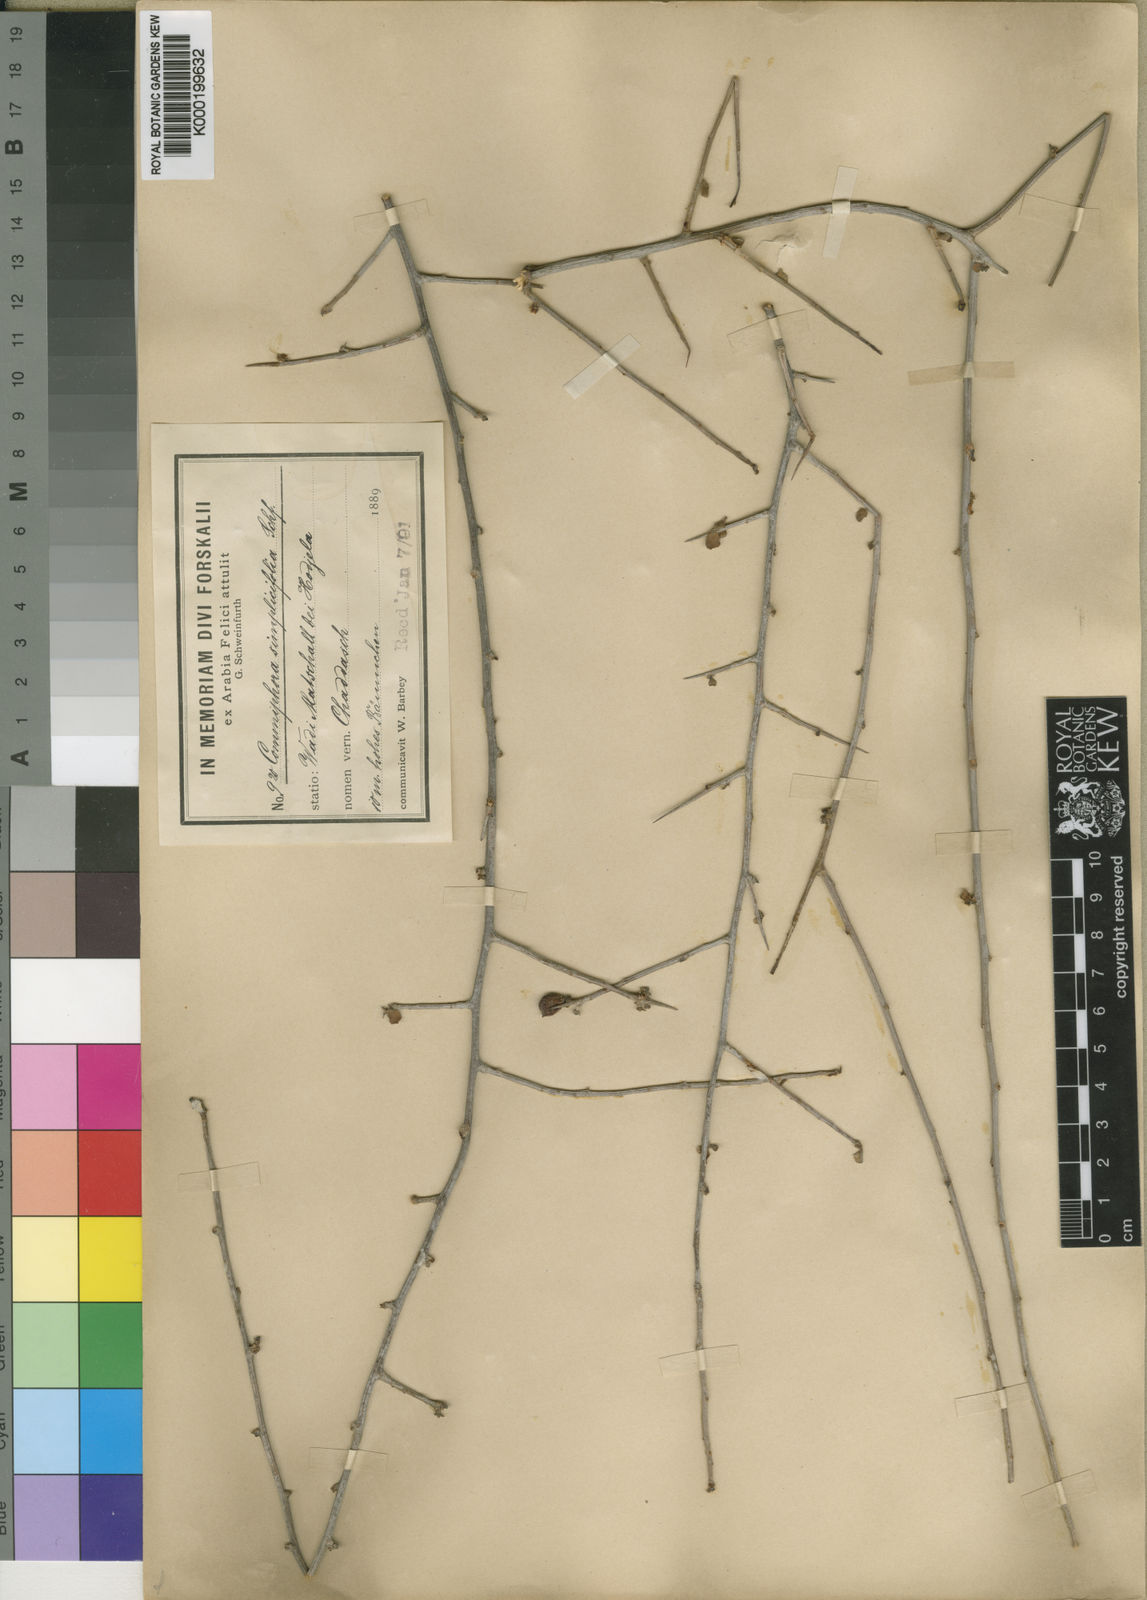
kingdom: Plantae
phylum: Tracheophyta
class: Magnoliopsida
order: Sapindales
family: Burseraceae
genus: Commiphora
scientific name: Commiphora kua
